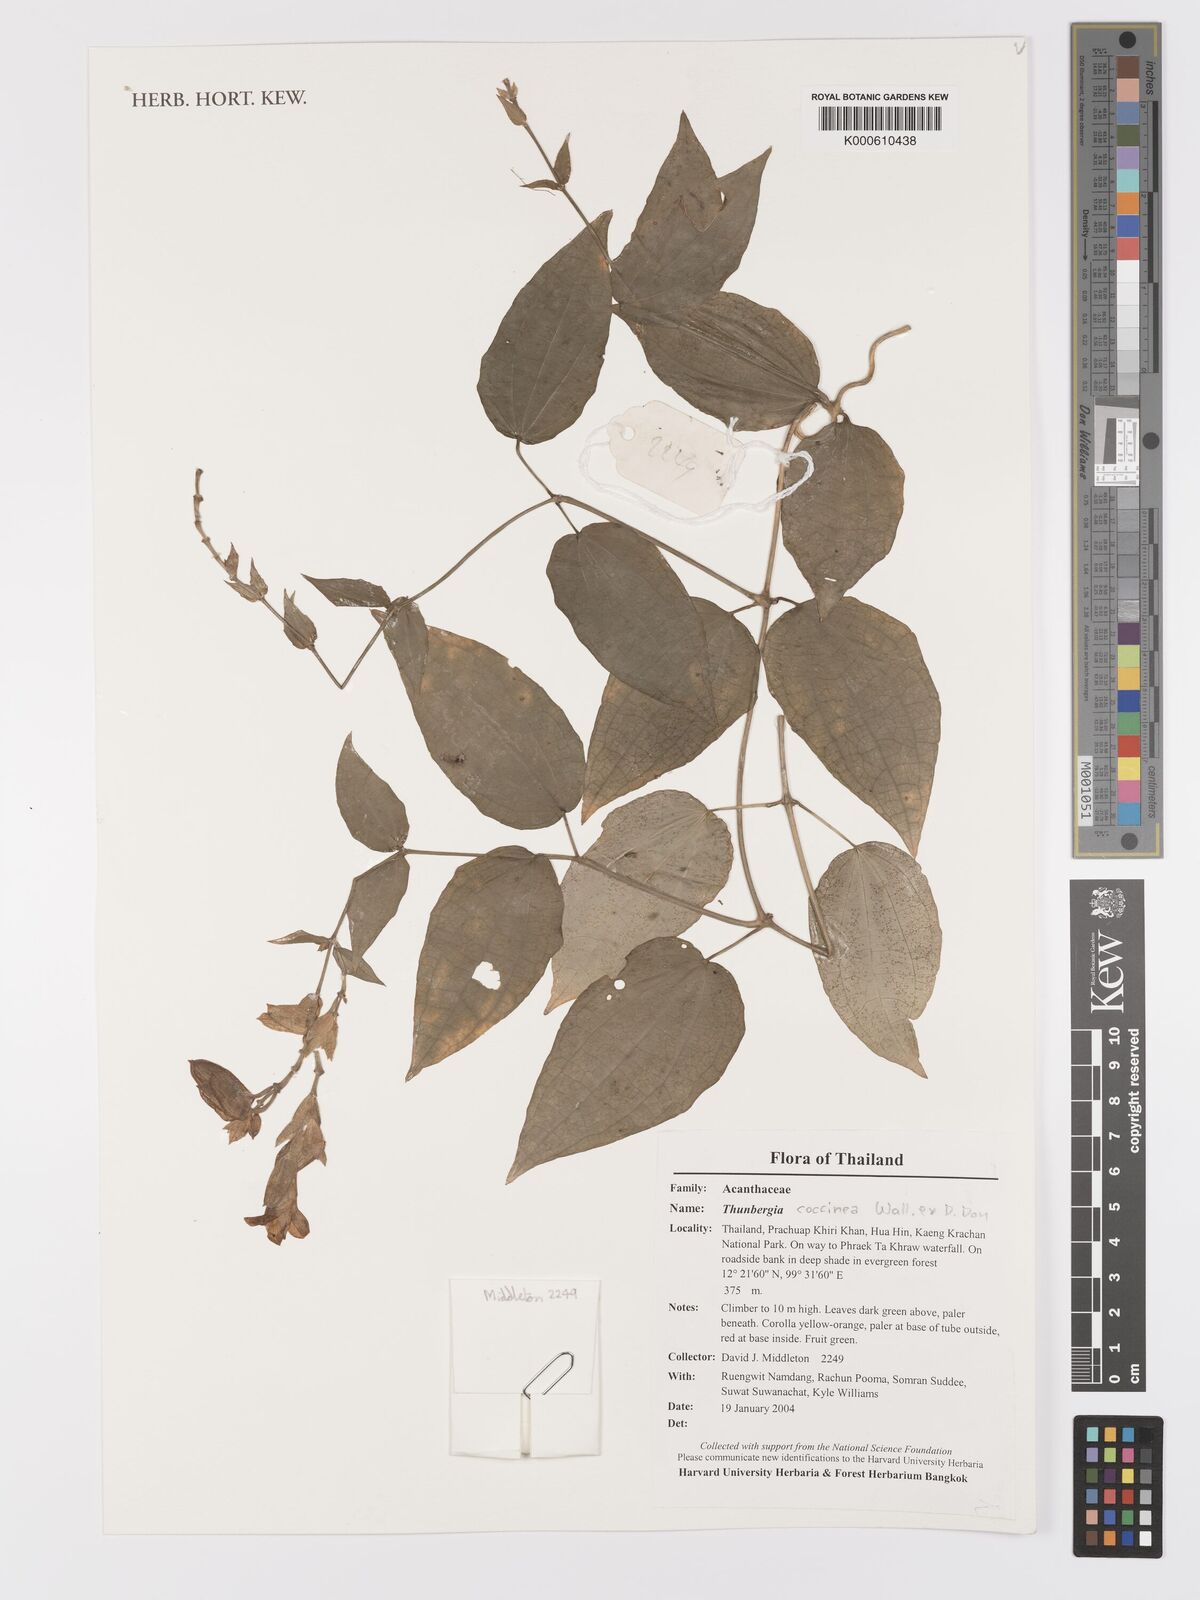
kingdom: Plantae
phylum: Tracheophyta
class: Magnoliopsida
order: Lamiales
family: Acanthaceae
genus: Thunbergia
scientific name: Thunbergia coccinea
